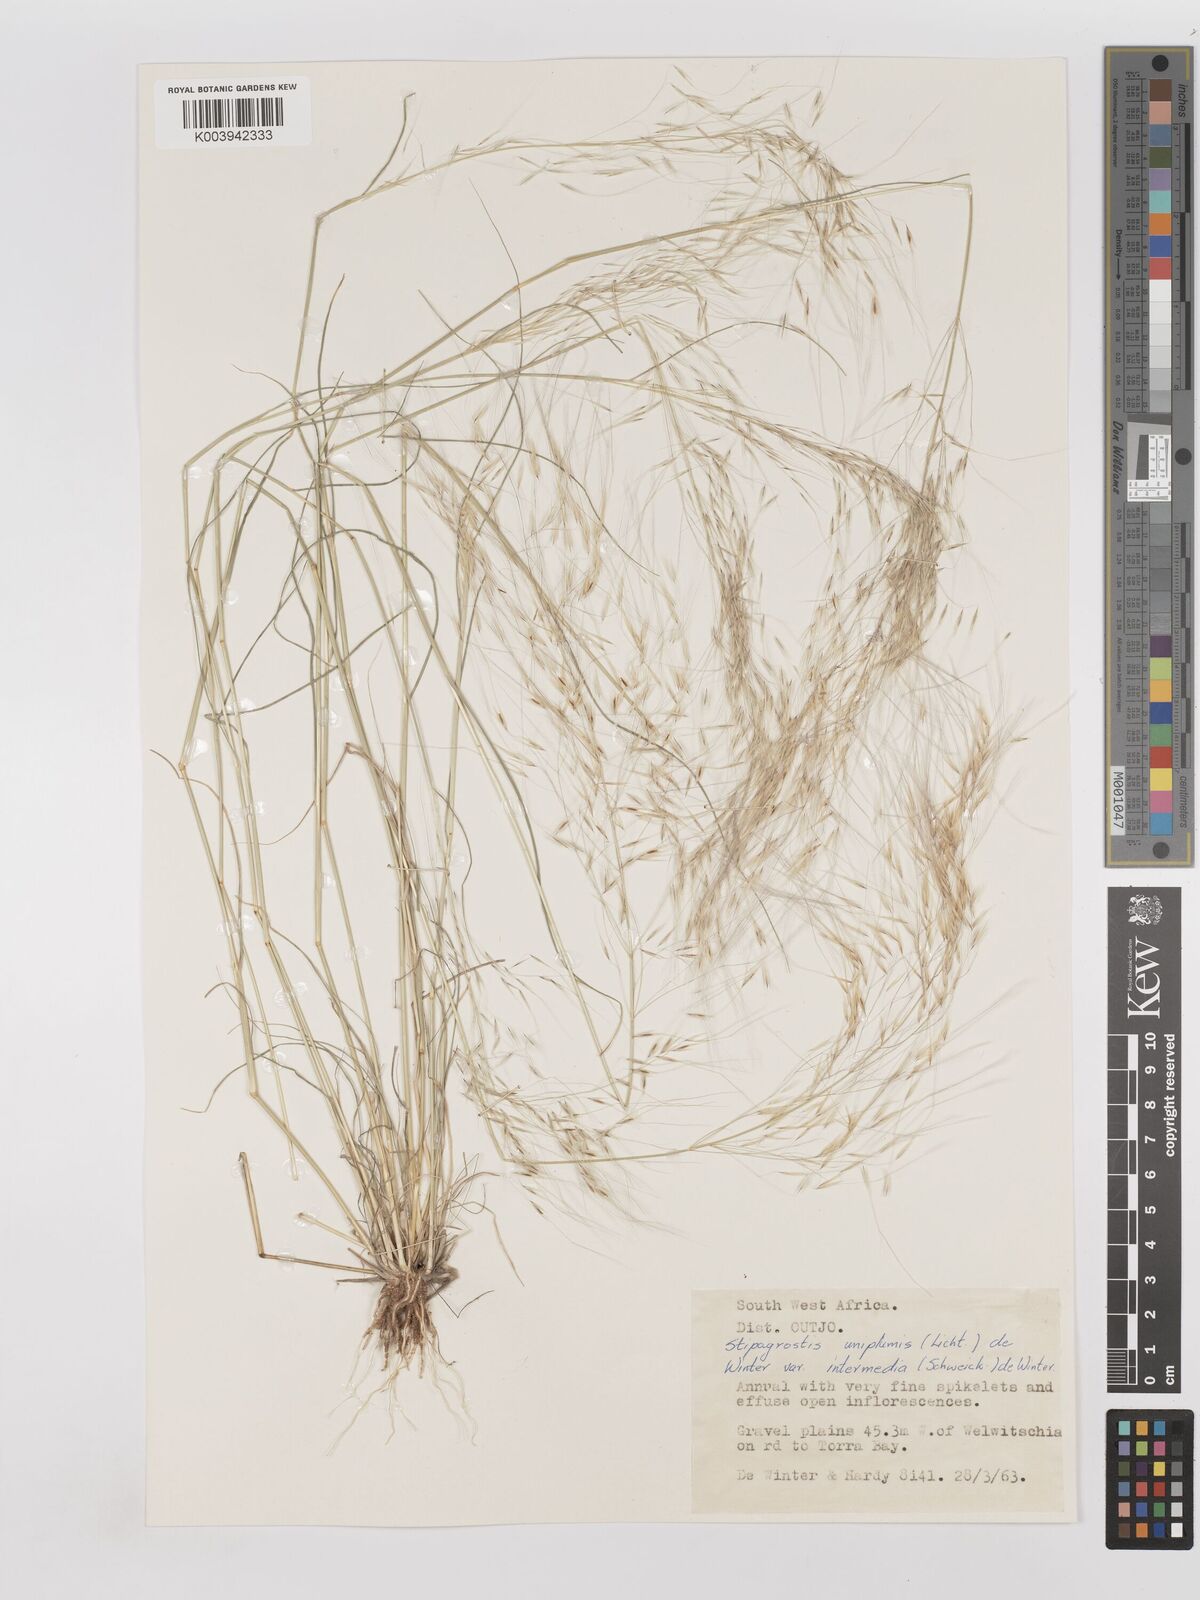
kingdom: Plantae
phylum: Tracheophyta
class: Liliopsida
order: Poales
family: Poaceae
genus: Stipagrostis
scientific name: Stipagrostis uniplumis
